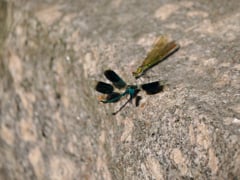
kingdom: Animalia
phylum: Arthropoda
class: Insecta
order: Odonata
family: Calopterygidae
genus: Calopteryx
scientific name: Calopteryx splendens
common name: Banded demoiselle
